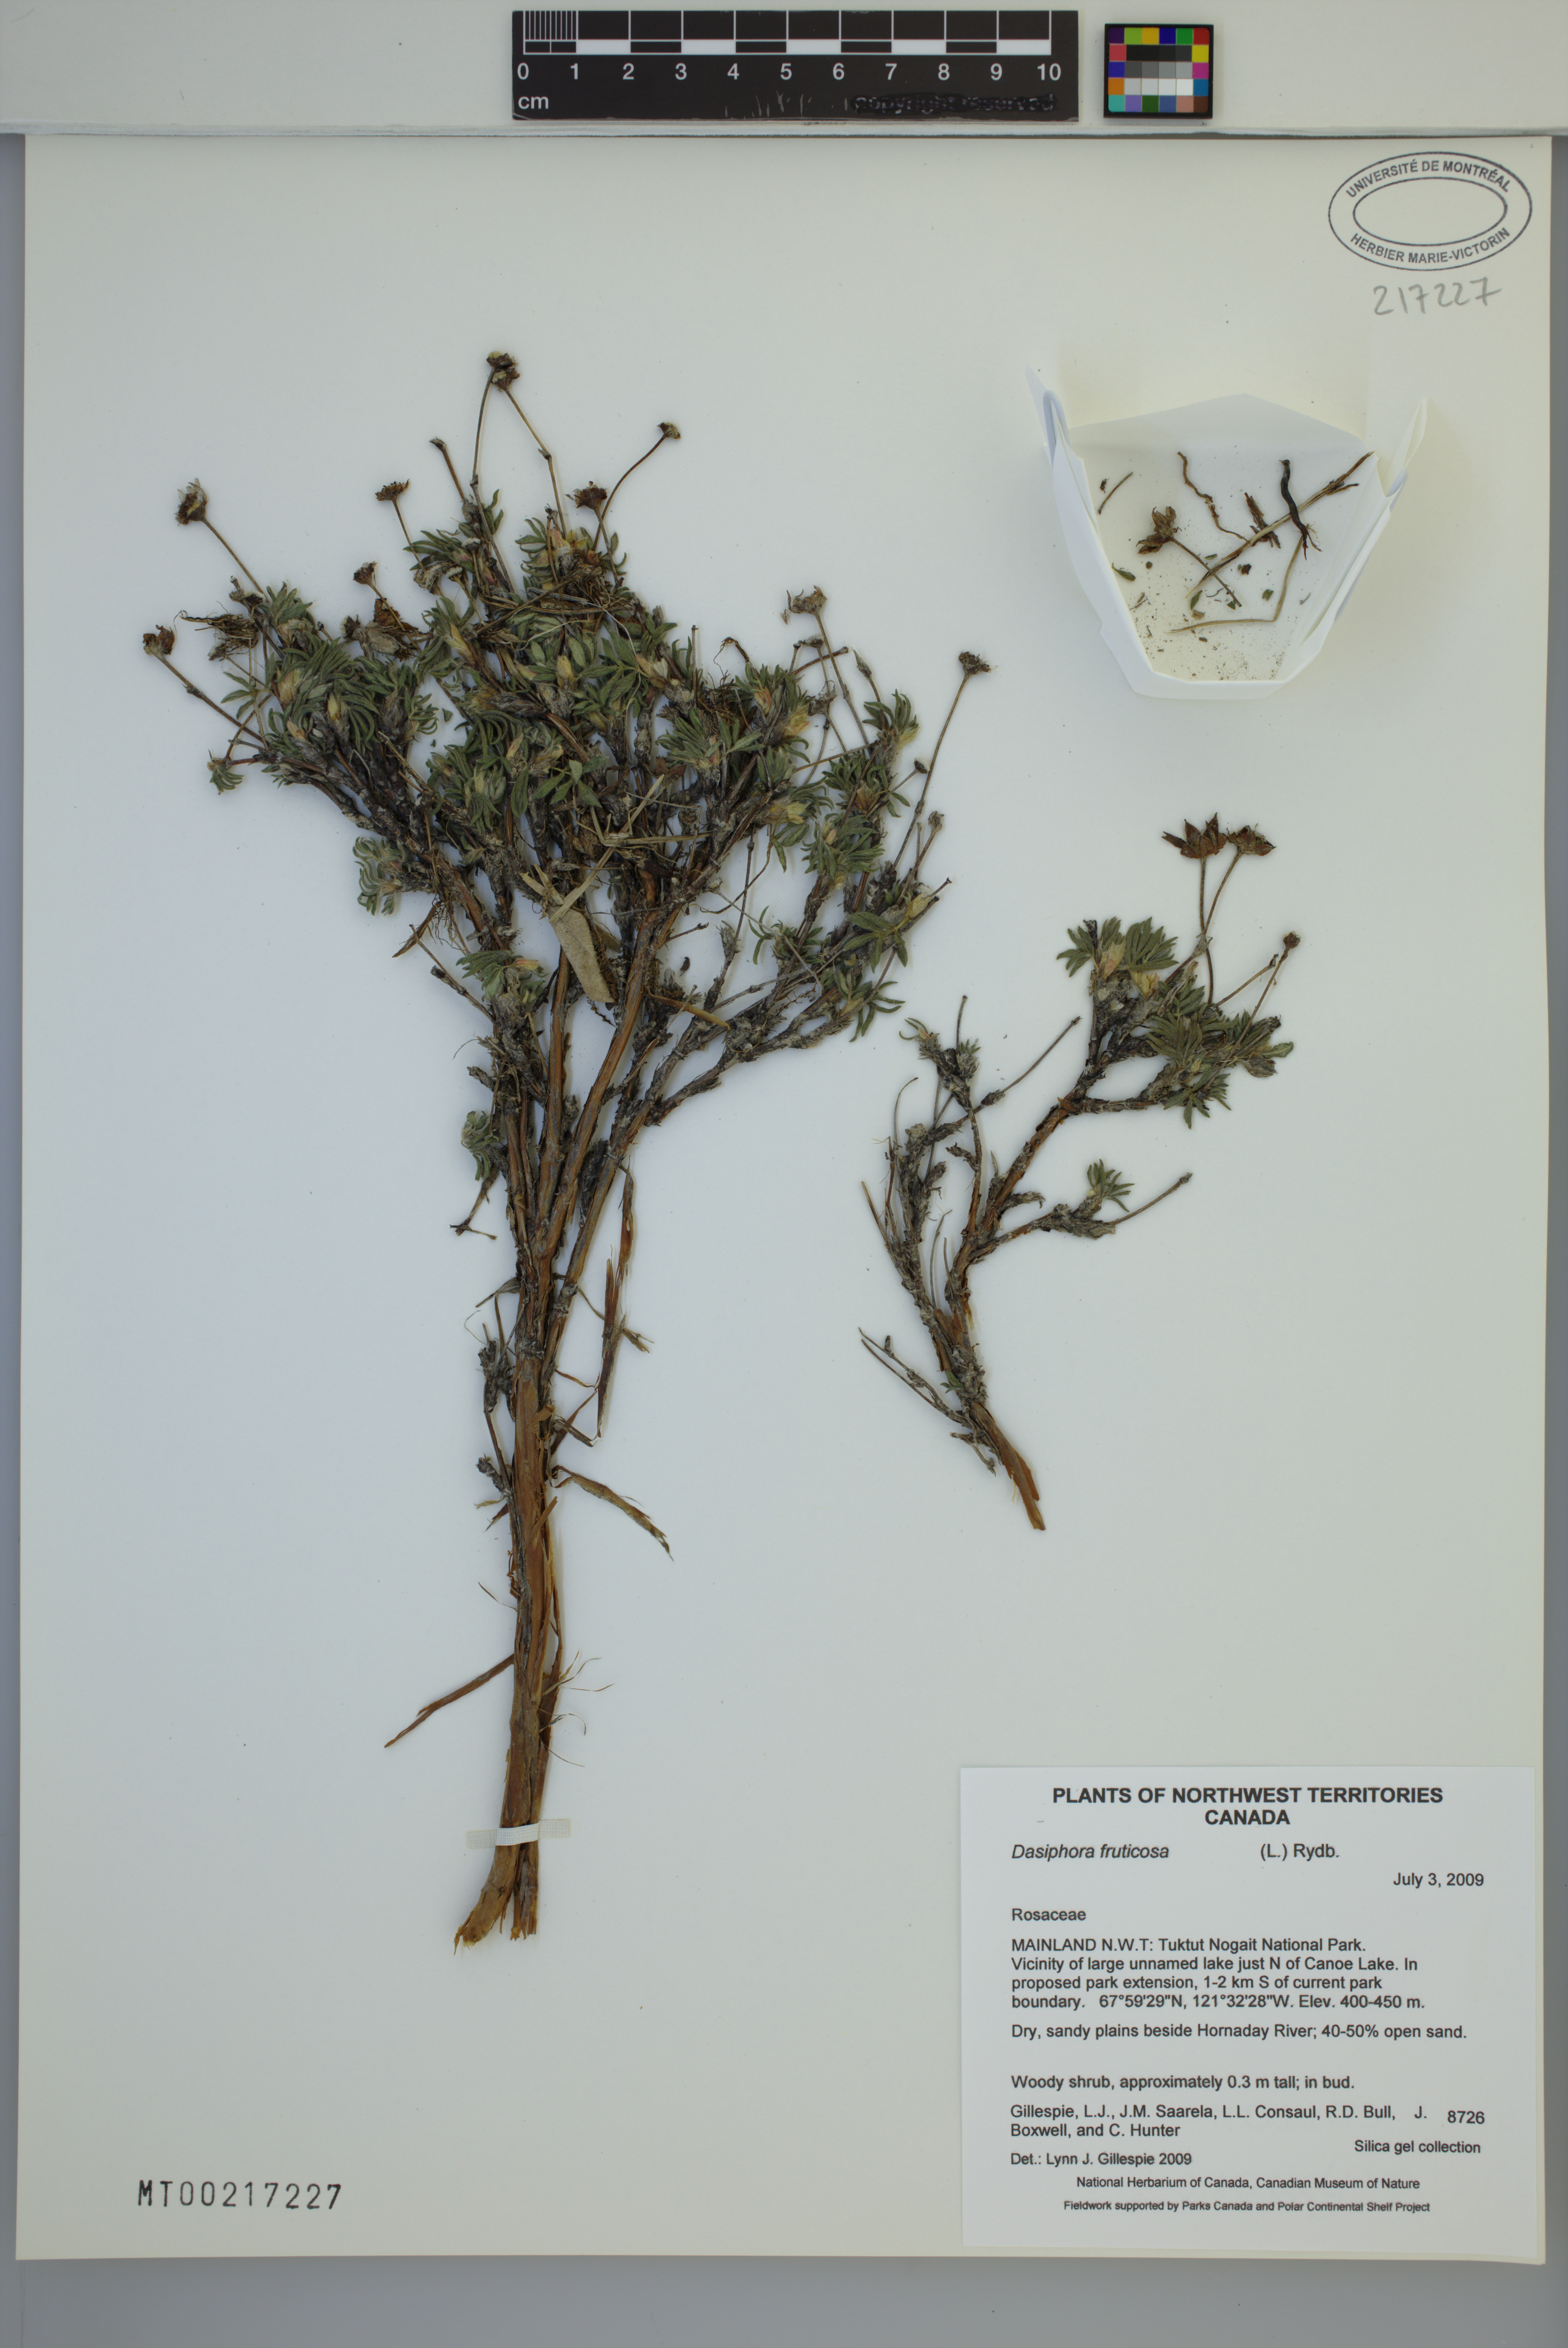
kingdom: Plantae
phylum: Tracheophyta
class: Magnoliopsida
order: Rosales
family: Rosaceae
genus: Dasiphora
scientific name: Dasiphora fruticosa
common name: Shrubby cinquefoil
